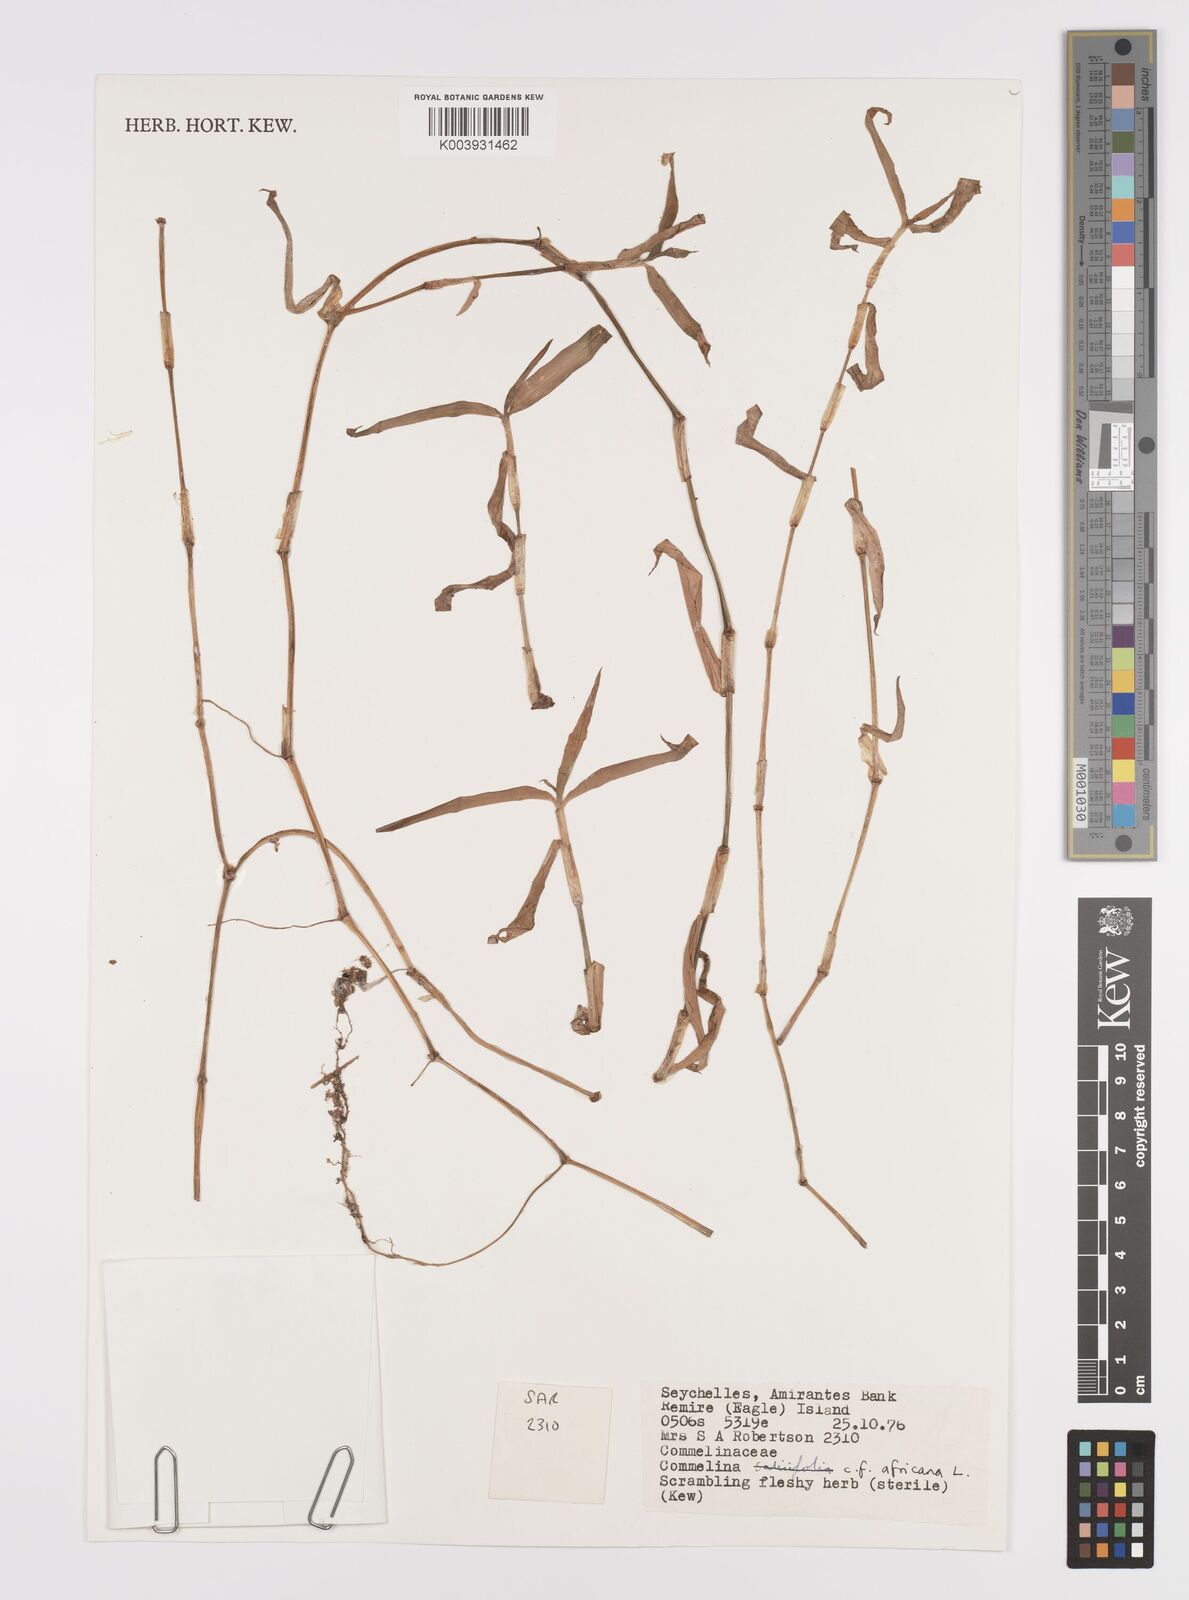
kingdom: Plantae
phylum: Tracheophyta
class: Liliopsida
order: Commelinales
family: Commelinaceae
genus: Commelina
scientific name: Commelina africana
